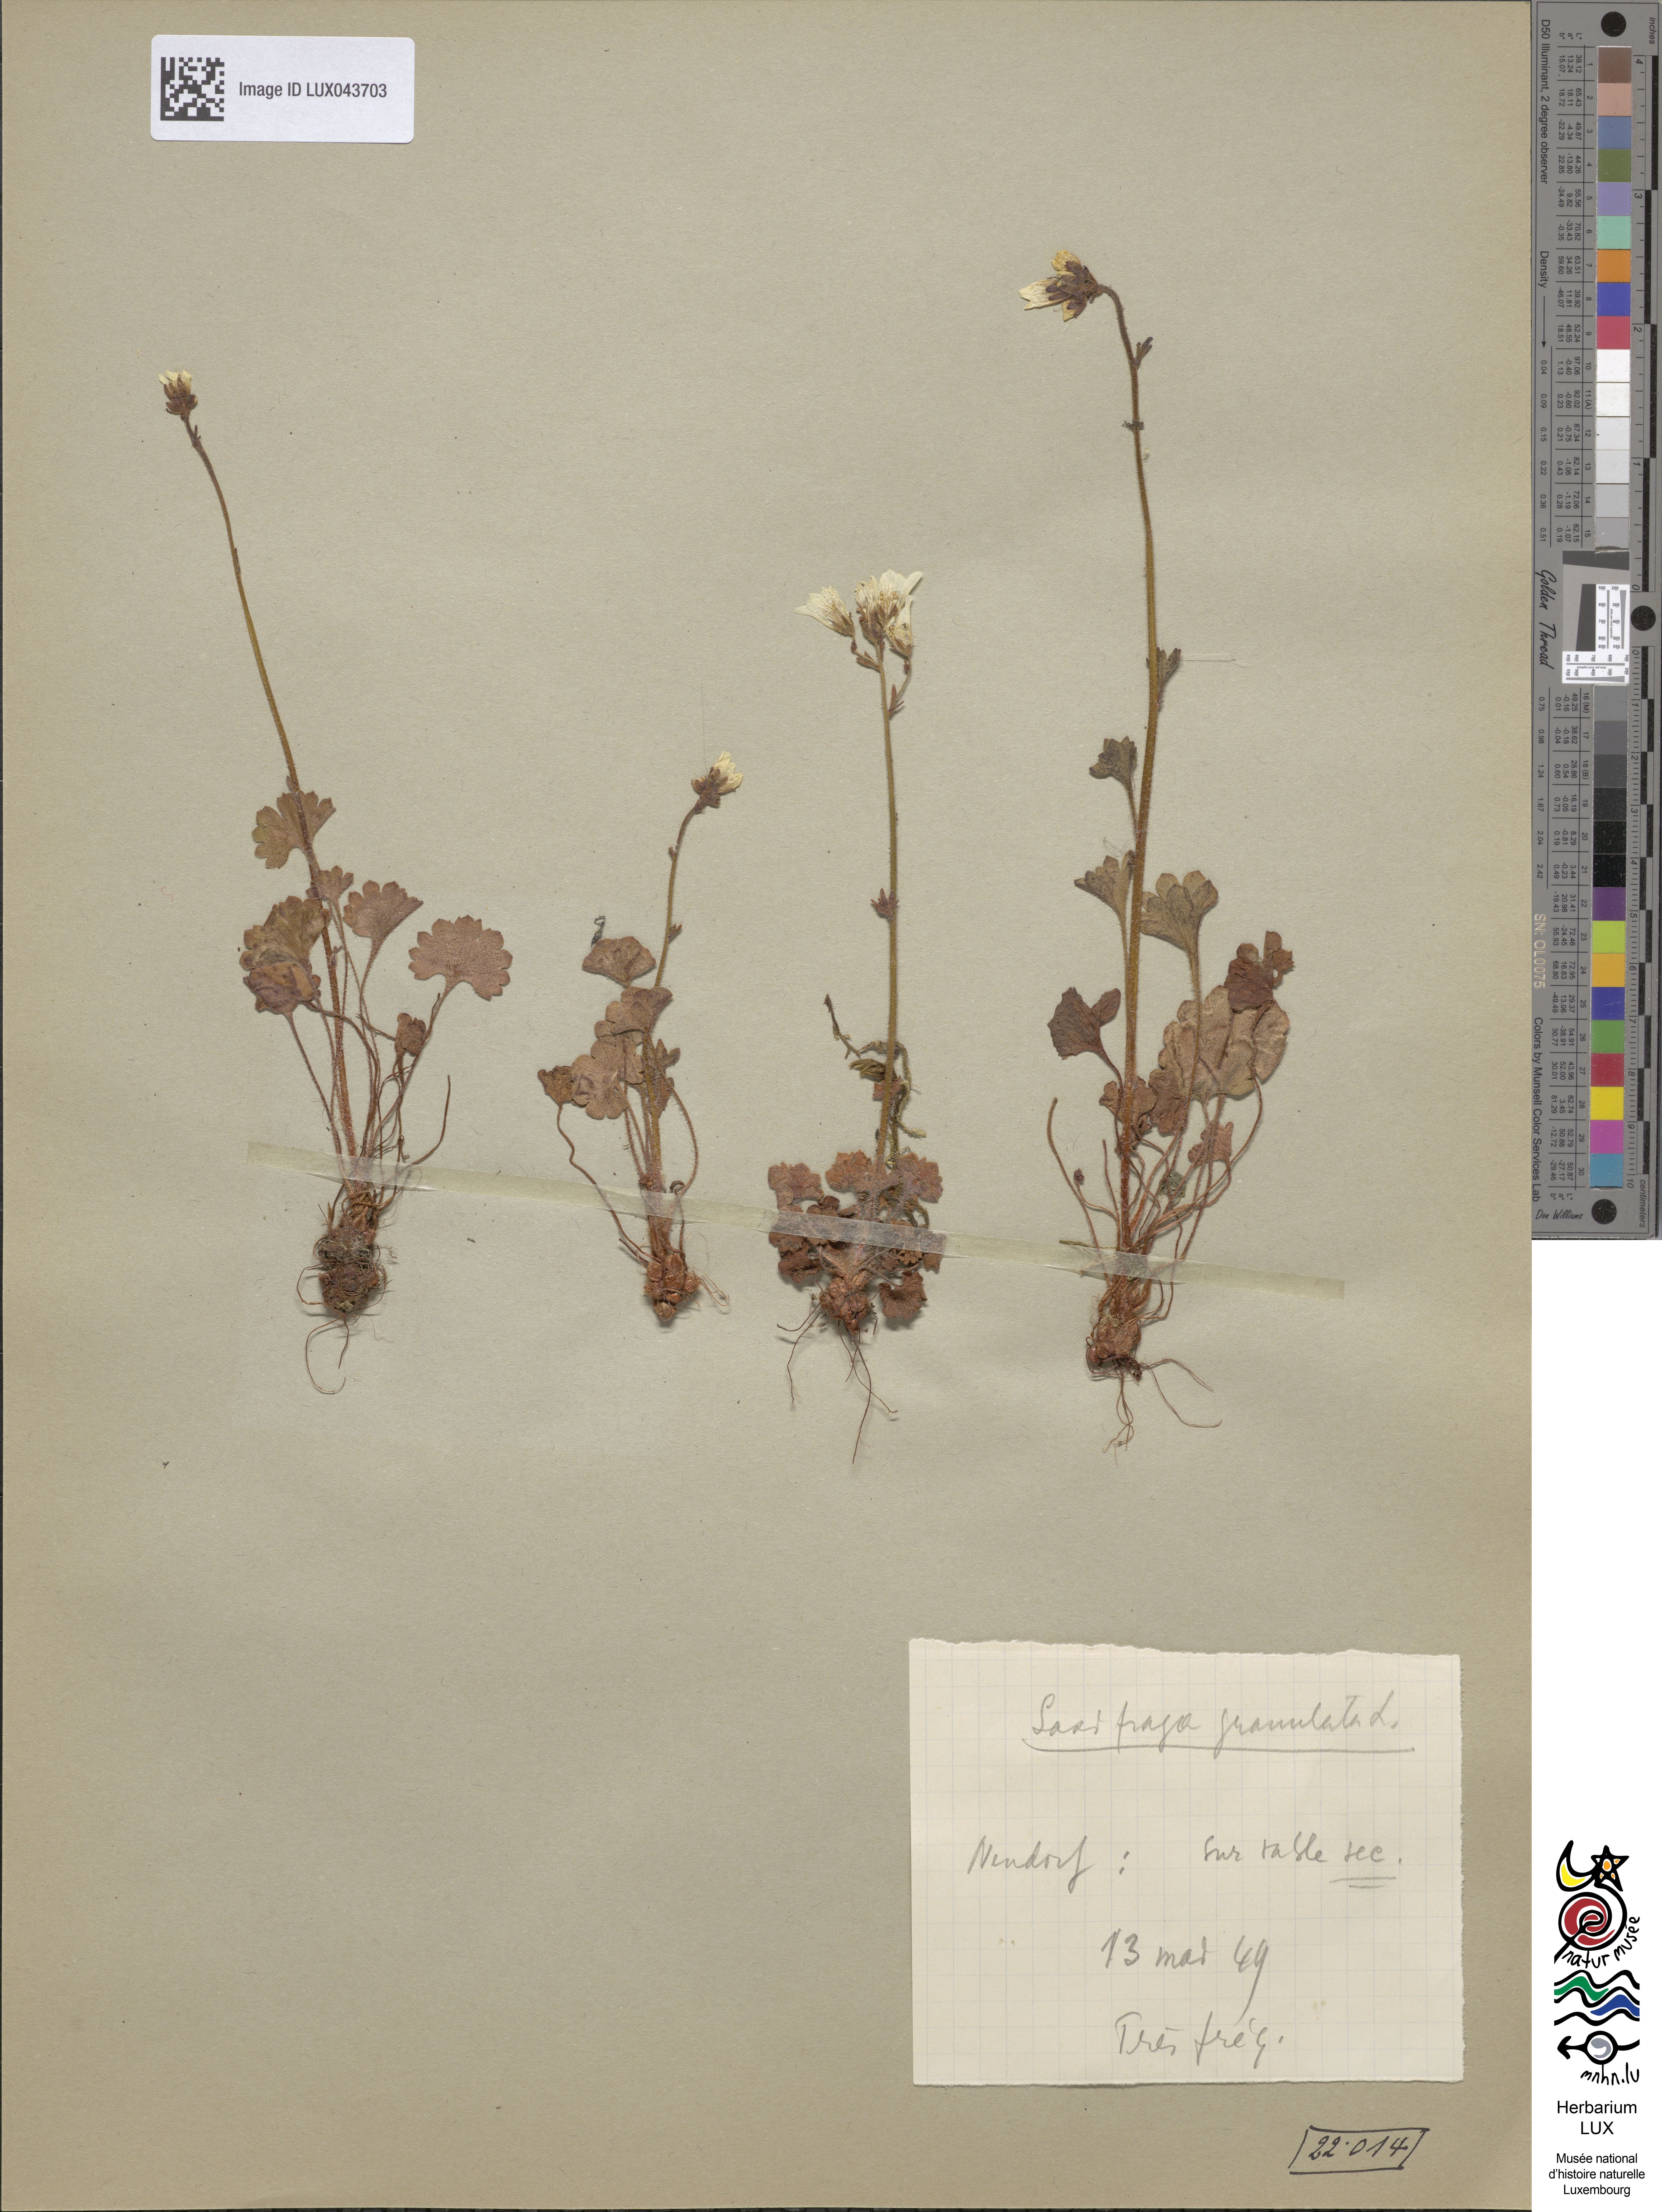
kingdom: Plantae
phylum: Tracheophyta
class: Magnoliopsida
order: Saxifragales
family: Saxifragaceae
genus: Saxifraga
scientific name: Saxifraga granulata
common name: Meadow saxifrage
